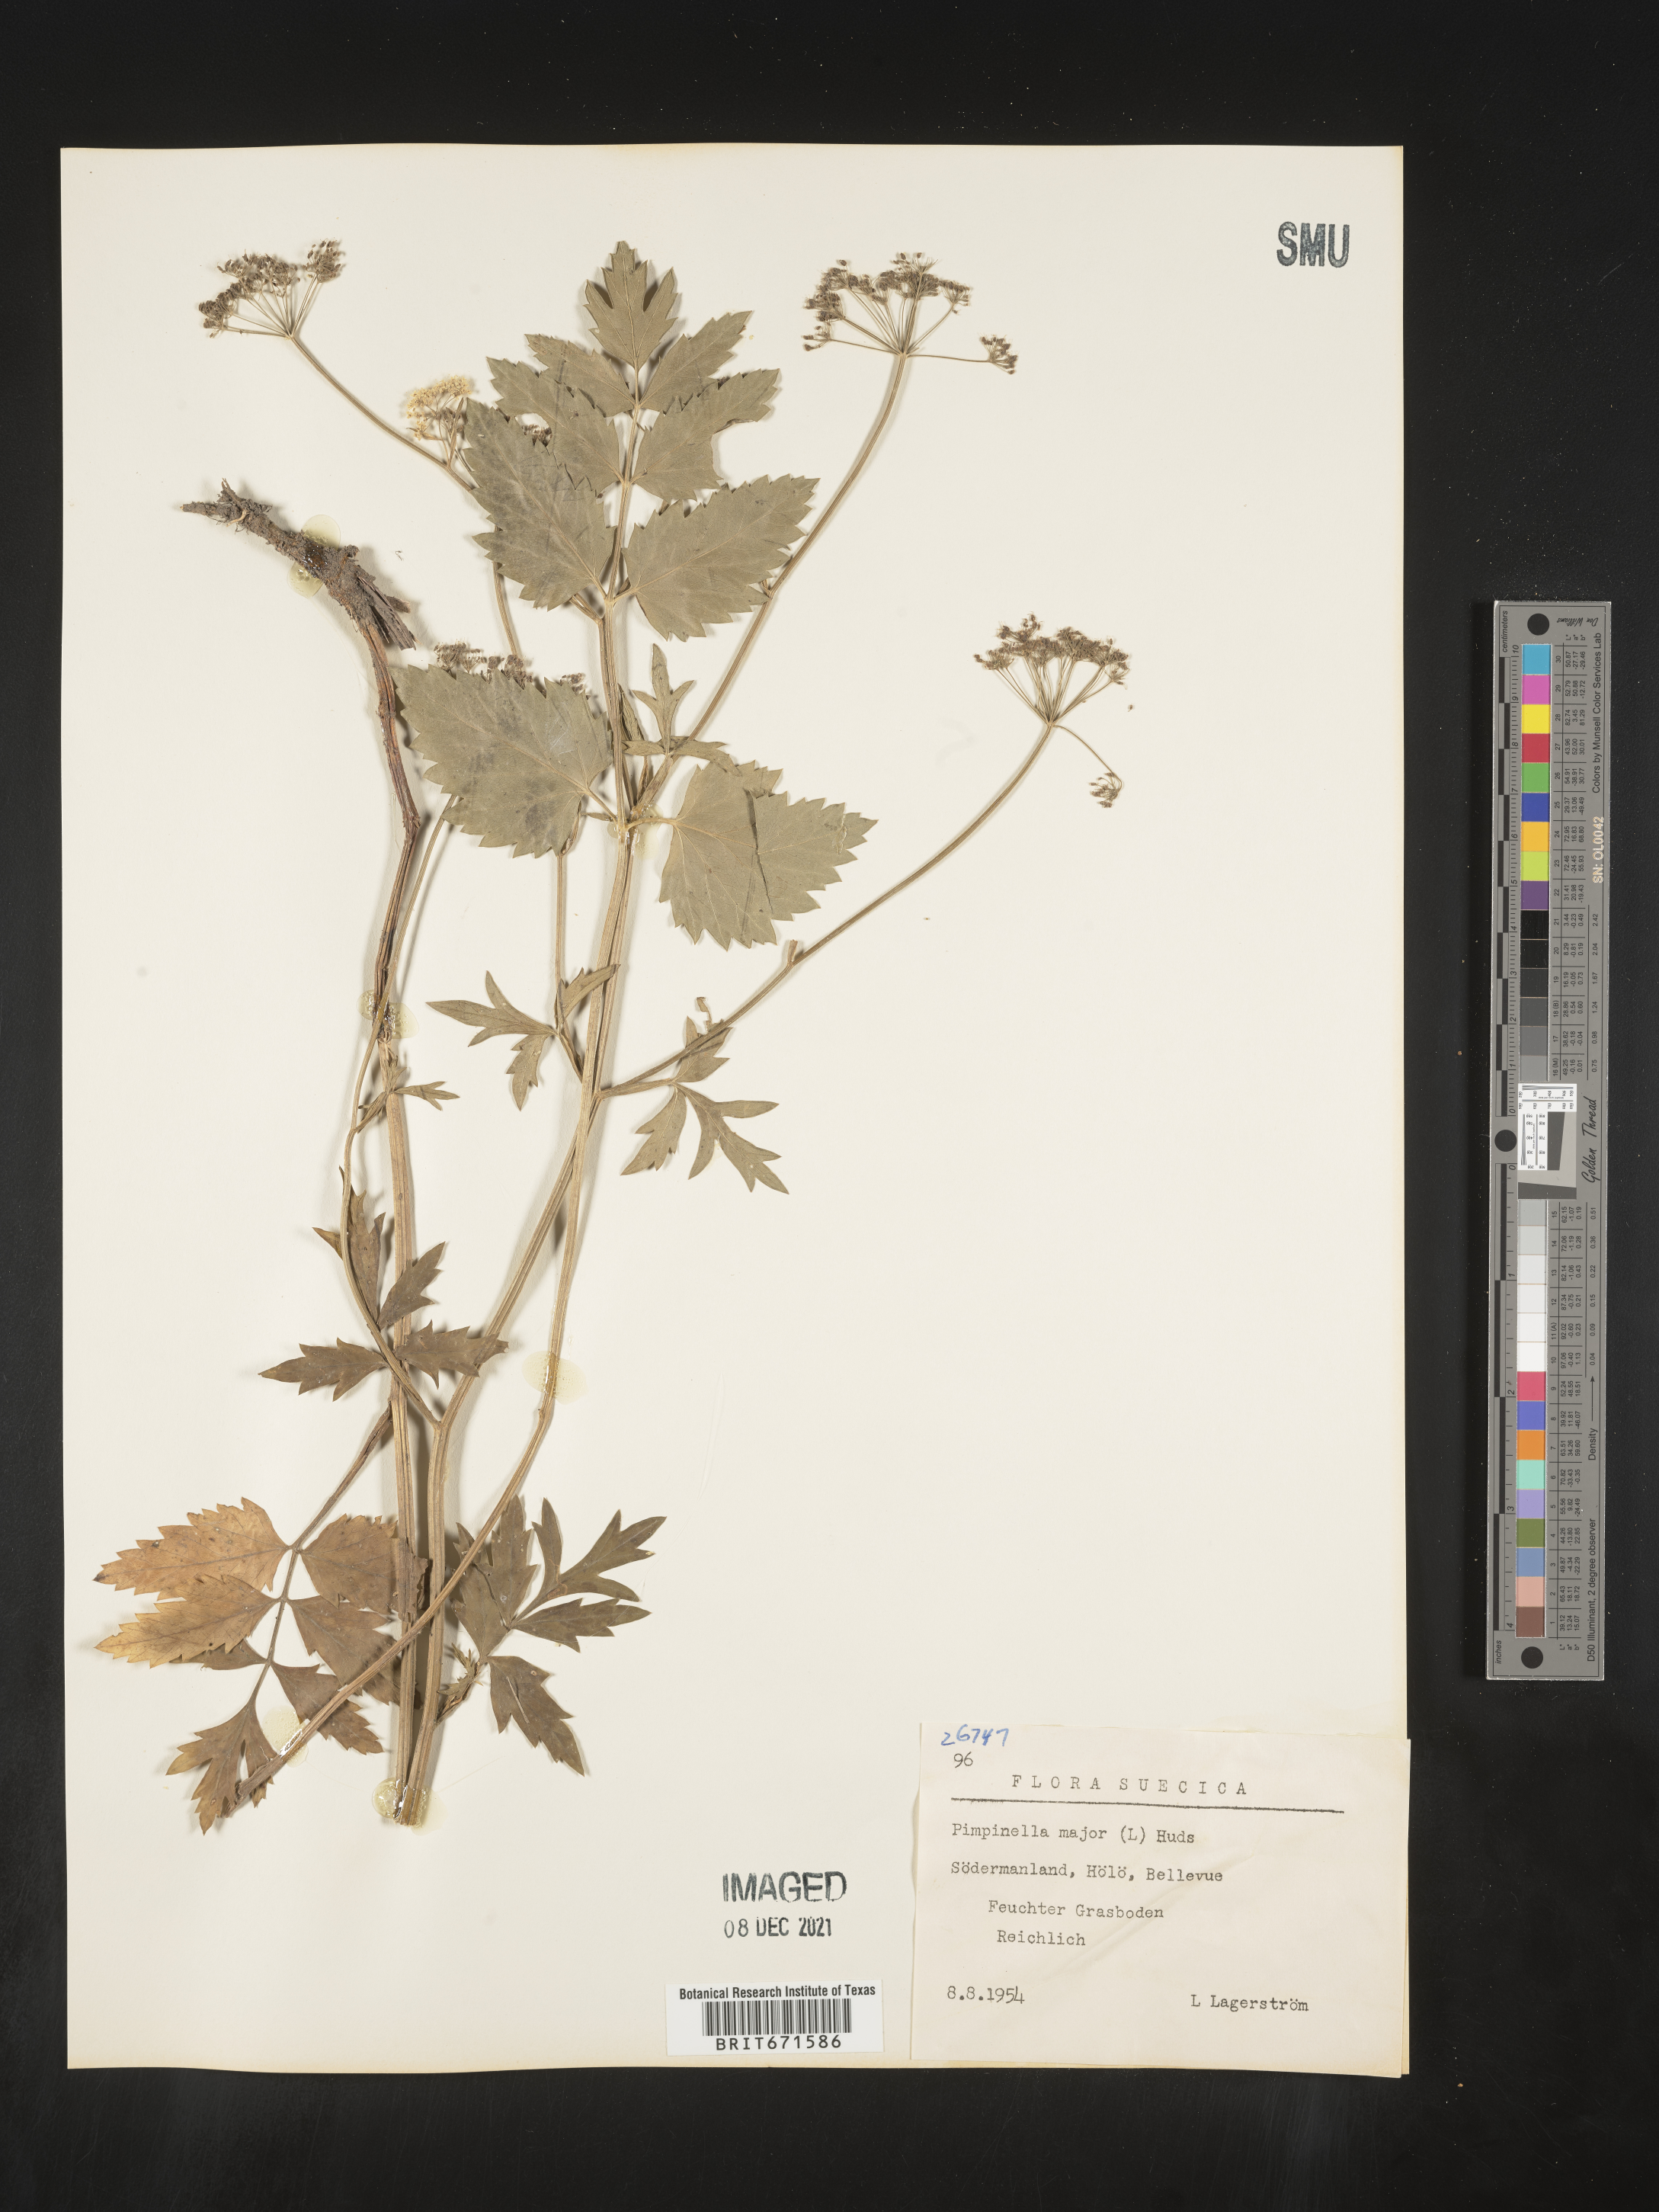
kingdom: Plantae
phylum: Tracheophyta
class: Magnoliopsida
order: Apiales
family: Apiaceae
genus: Pimpinella
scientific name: Pimpinella major
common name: Greater burnet-saxifrage
